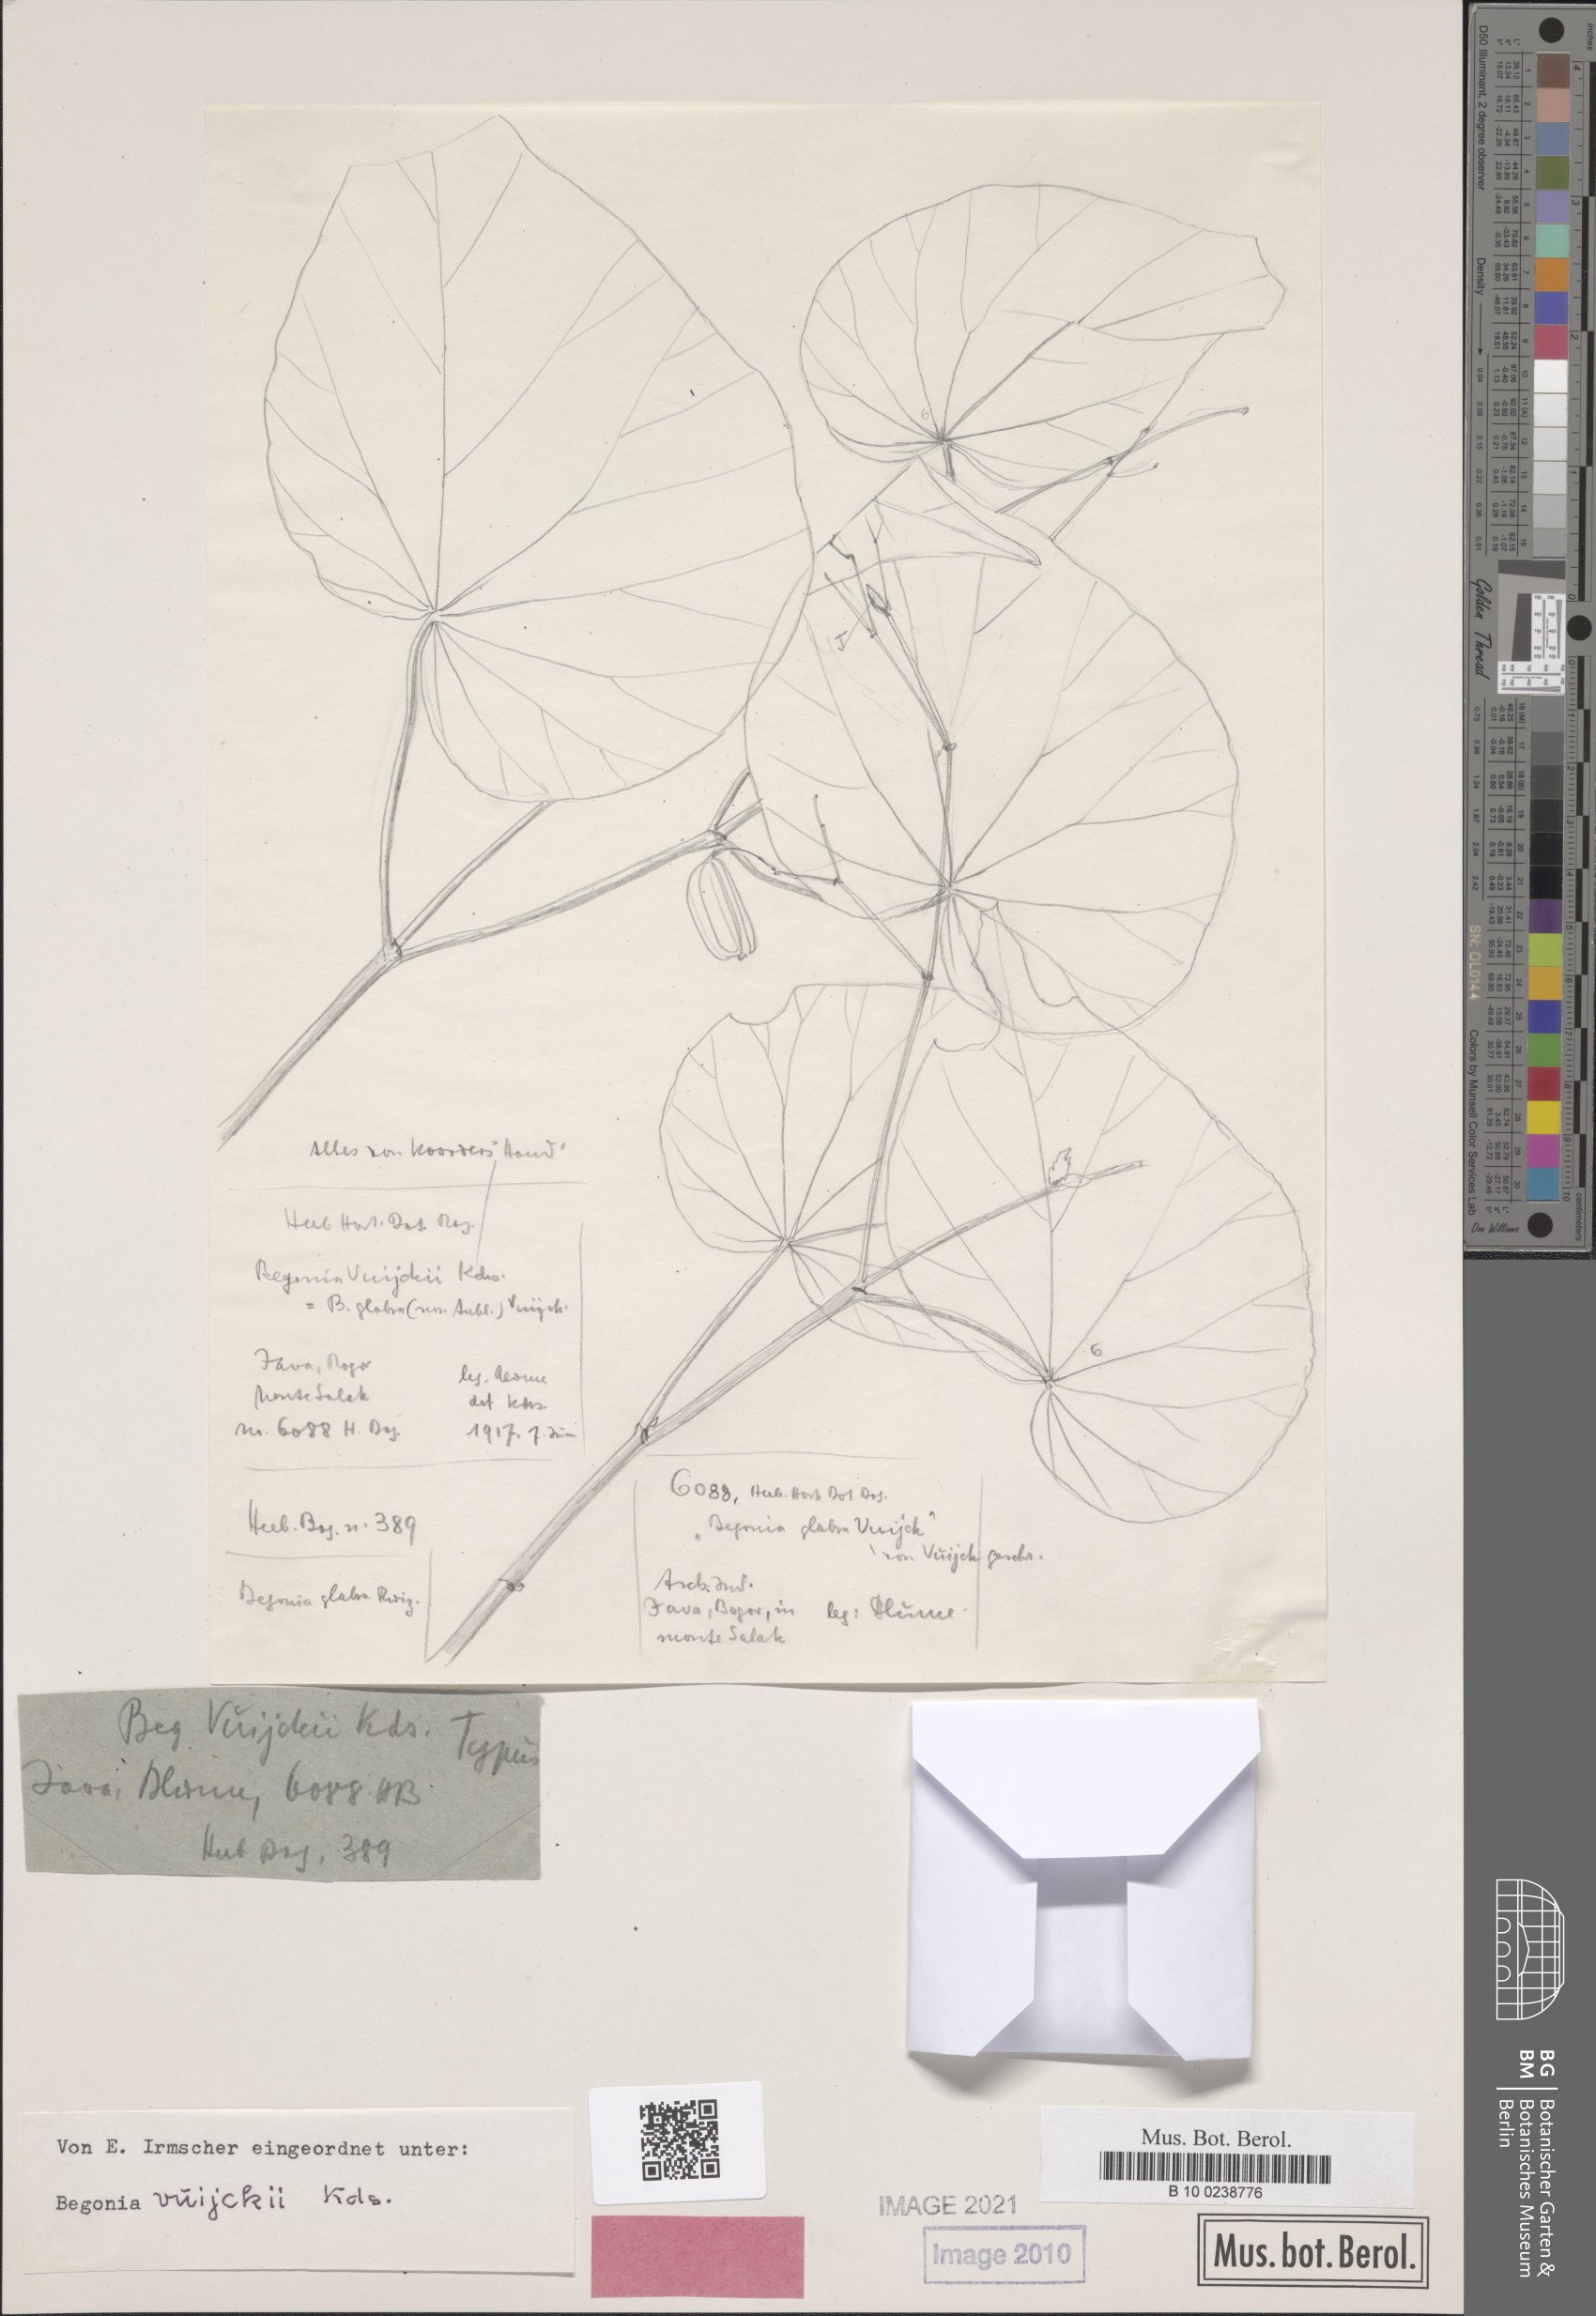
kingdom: Plantae
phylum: Tracheophyta
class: Magnoliopsida
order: Cucurbitales
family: Begoniaceae
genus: Begonia
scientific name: Begonia vuijckii
